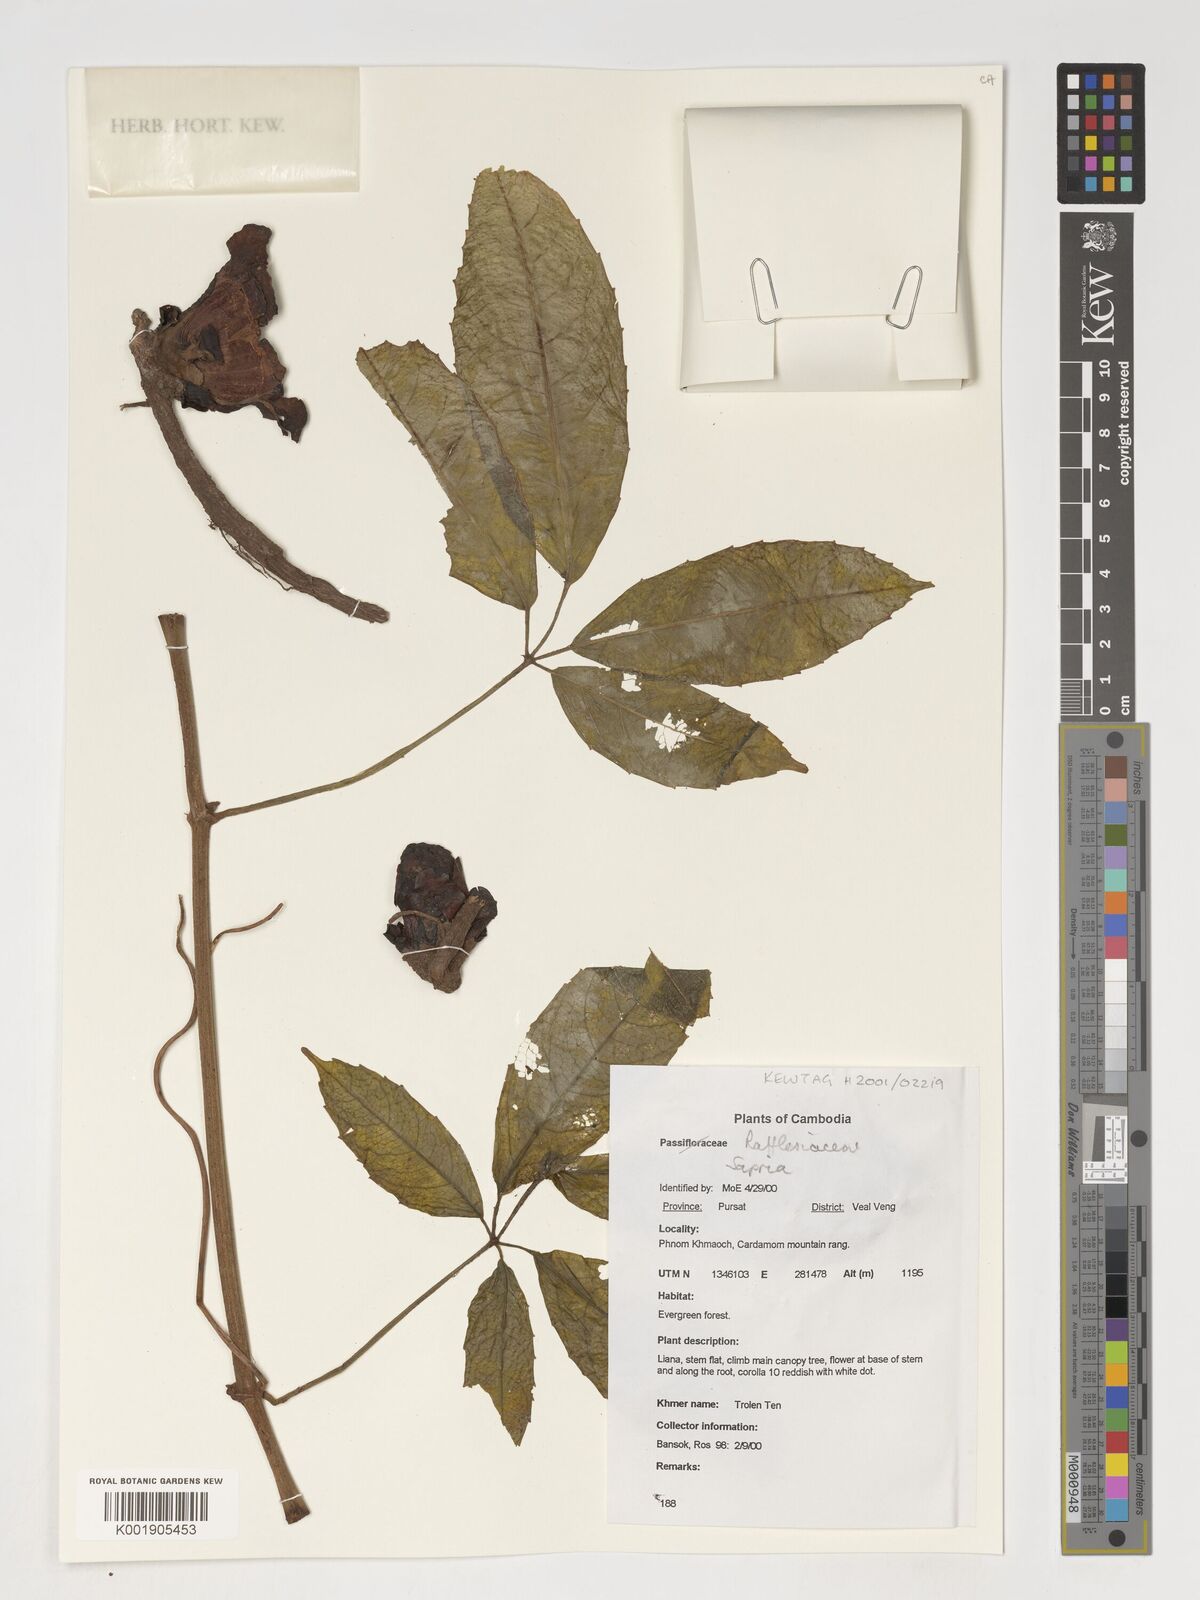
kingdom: Plantae
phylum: Tracheophyta
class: Magnoliopsida
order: Malpighiales
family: Rafflesiaceae
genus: Sapria
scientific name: Sapria
